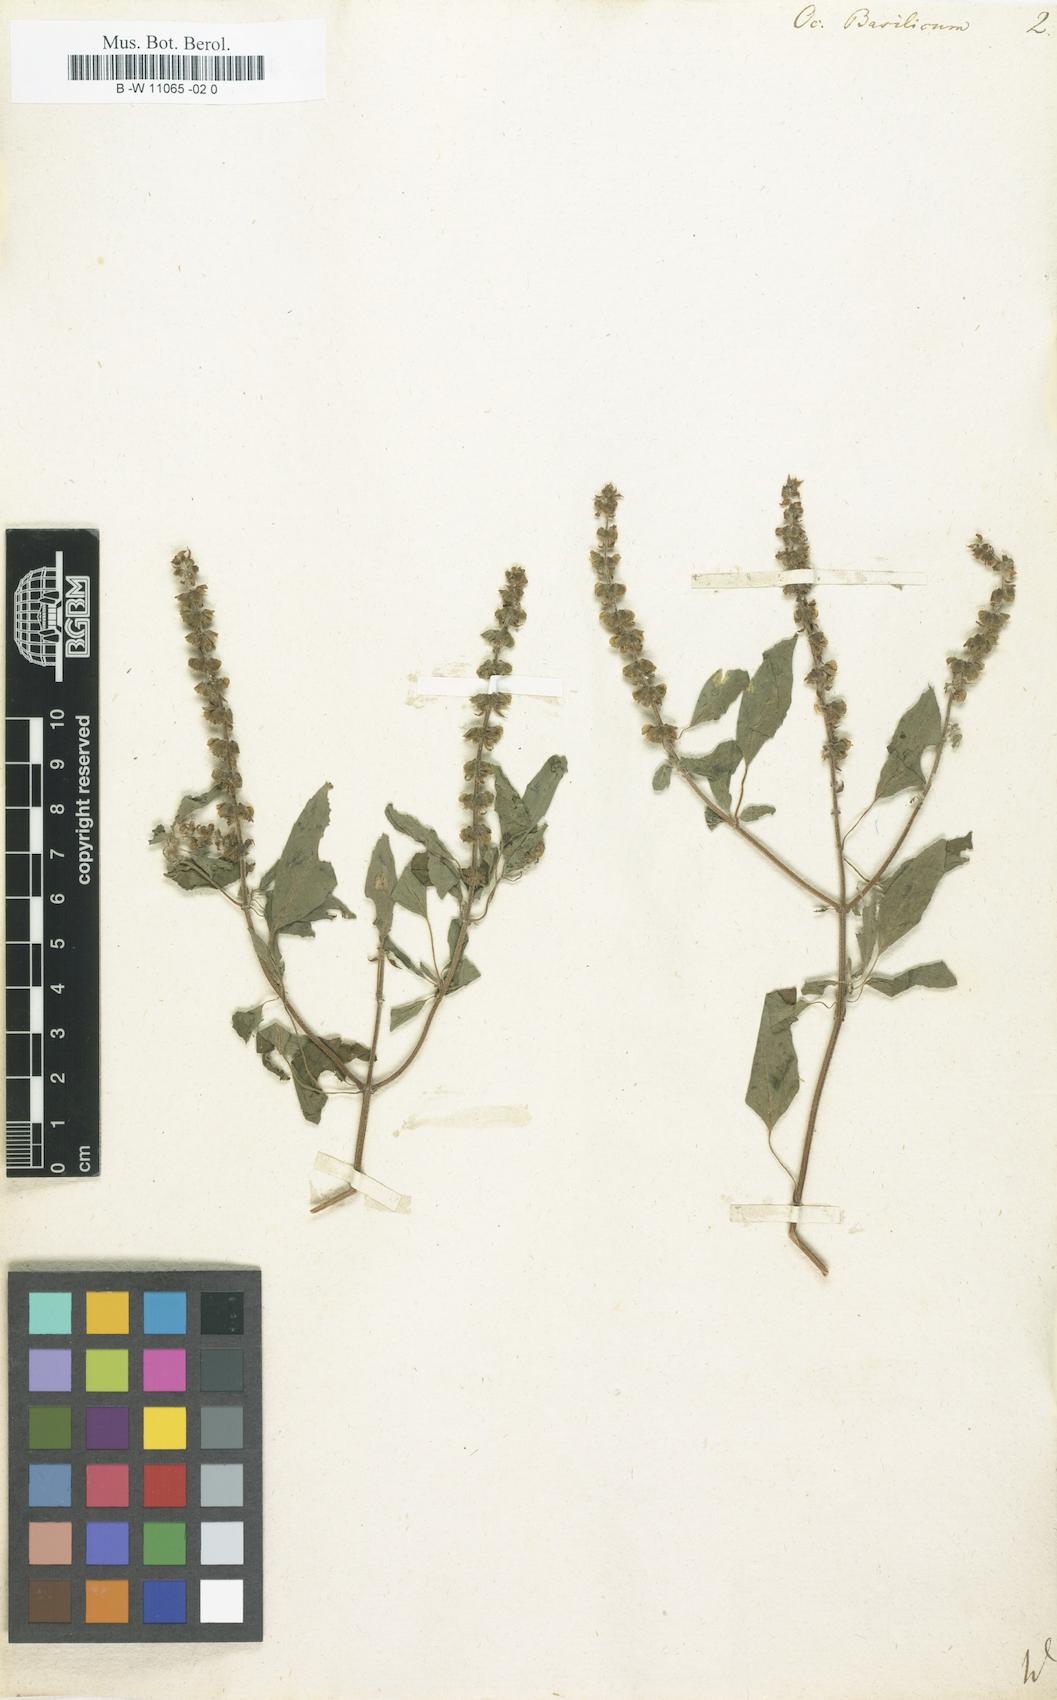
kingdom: Plantae
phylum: Tracheophyta
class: Magnoliopsida
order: Lamiales
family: Lamiaceae
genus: Ocimum
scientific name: Ocimum basilicum
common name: Sweet basil
